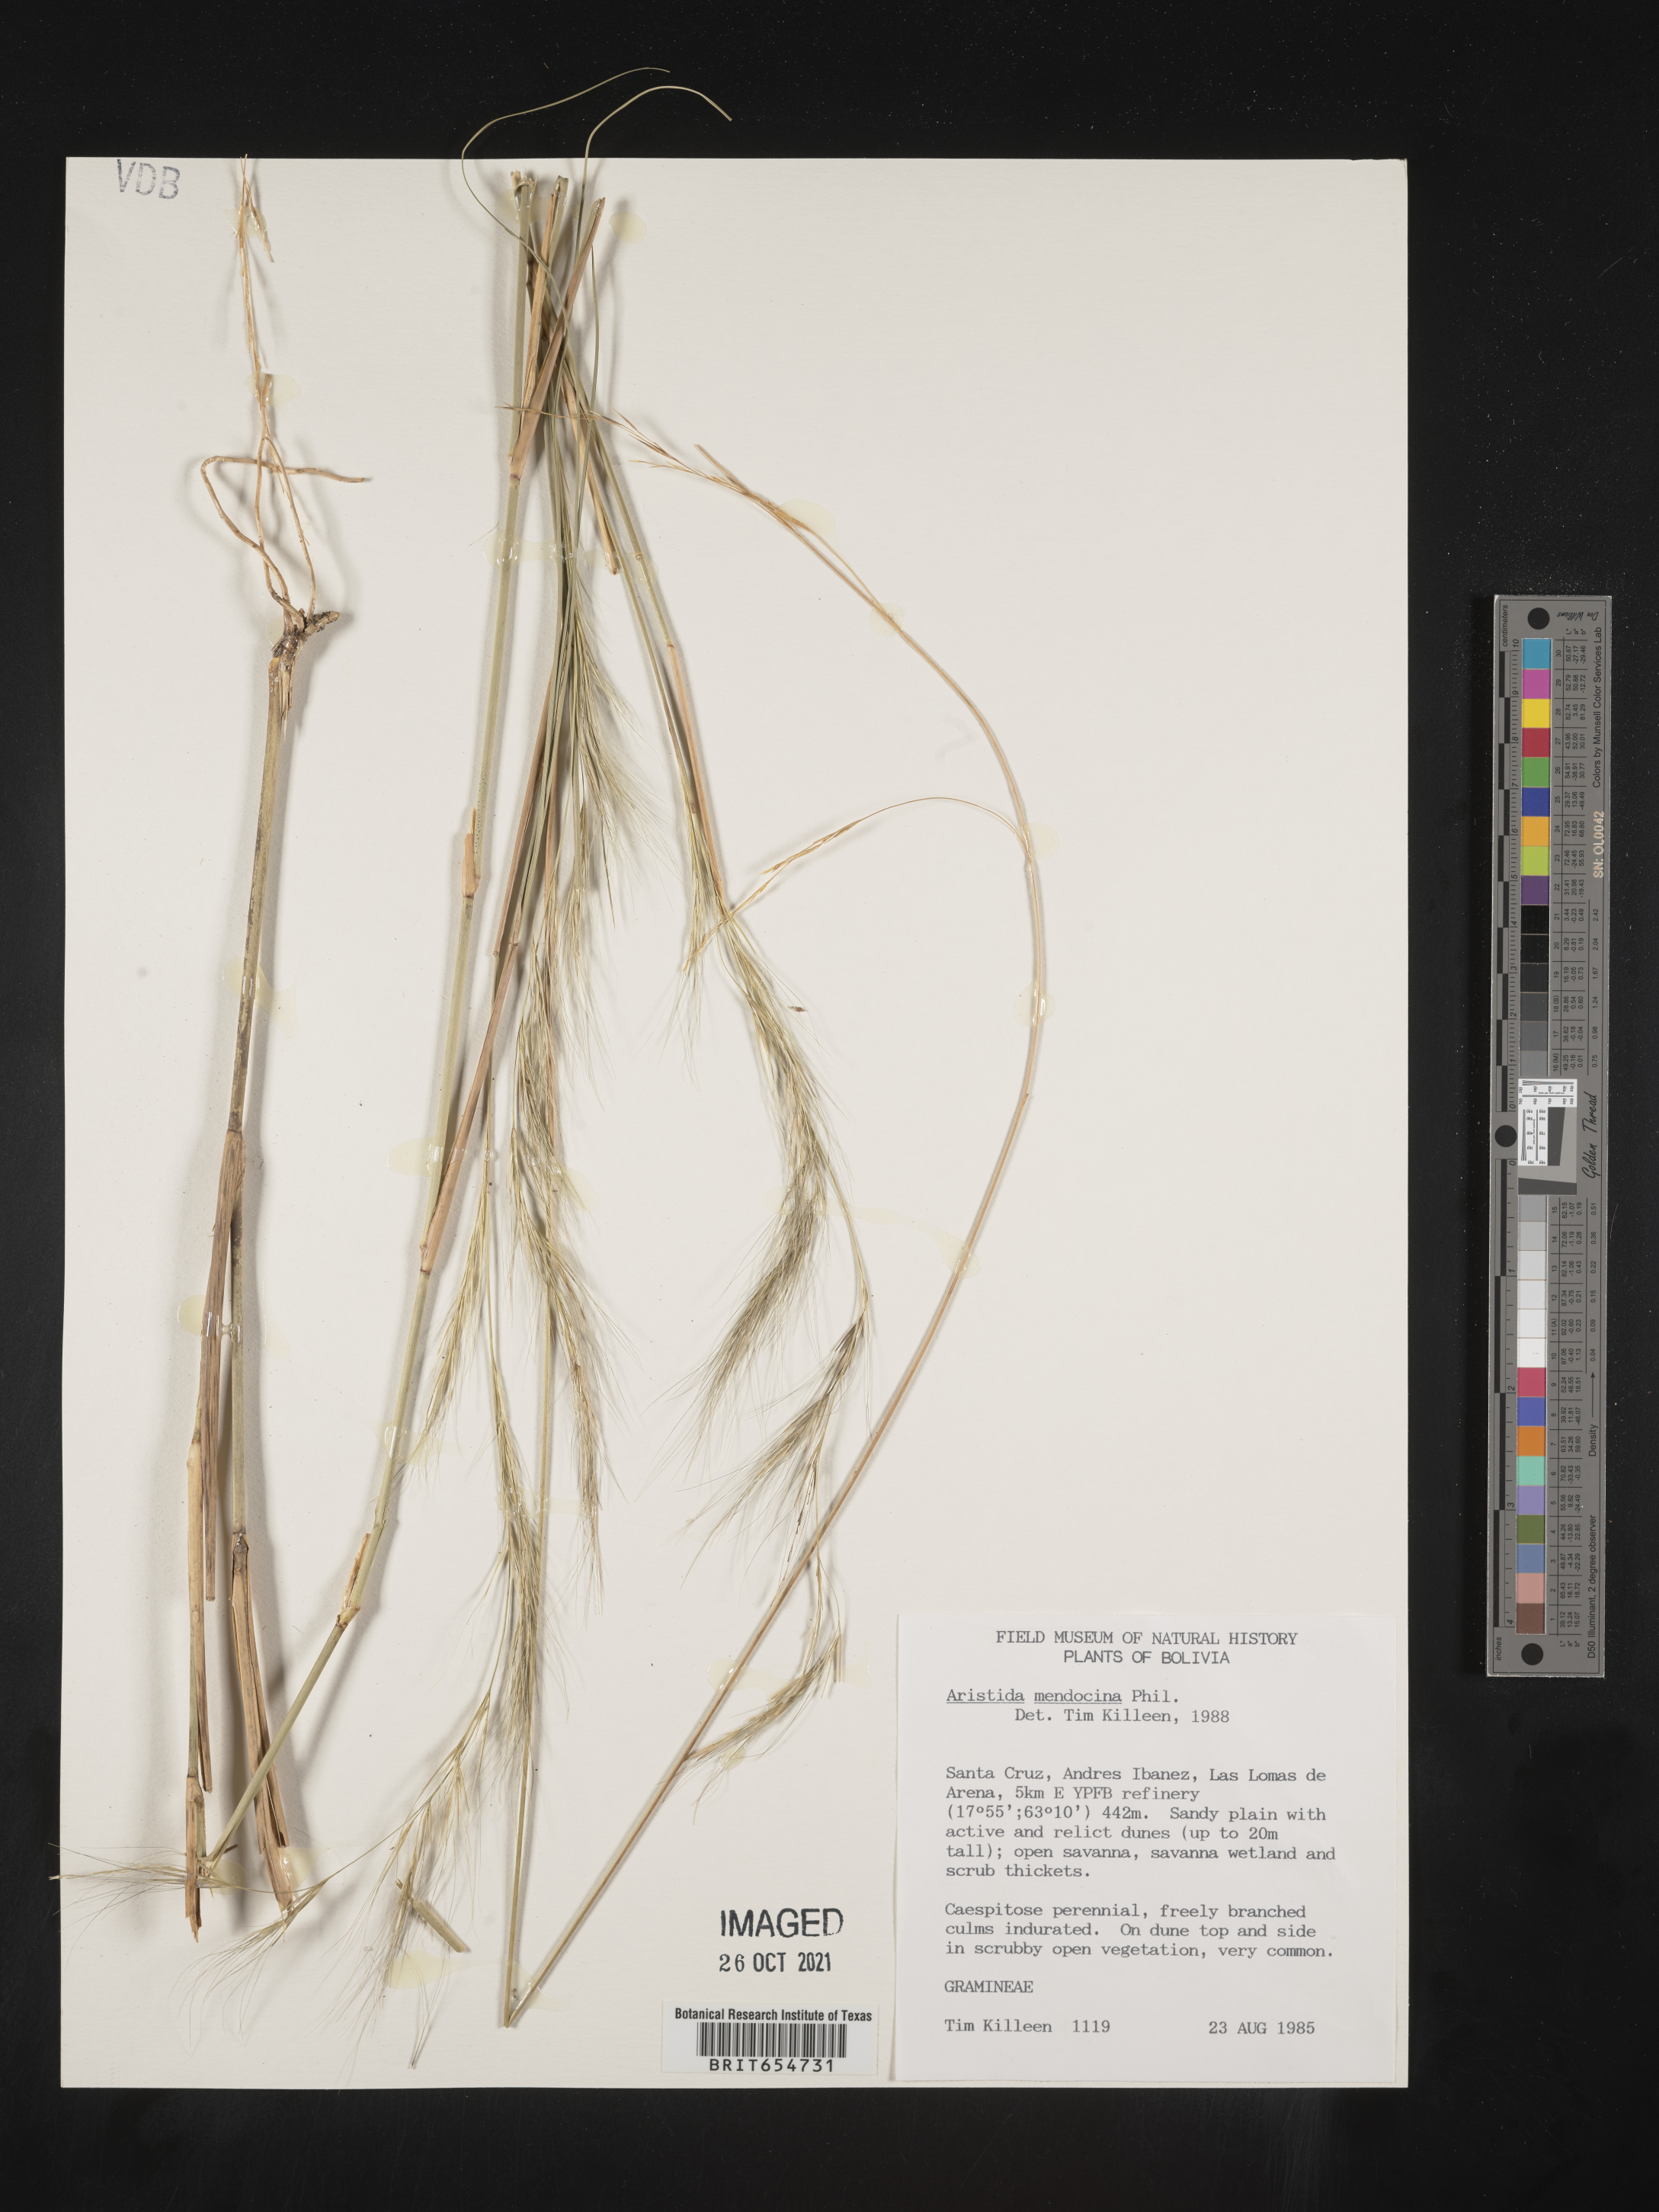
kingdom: Plantae
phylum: Tracheophyta
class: Liliopsida
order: Poales
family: Poaceae
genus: Aristida
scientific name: Aristida
